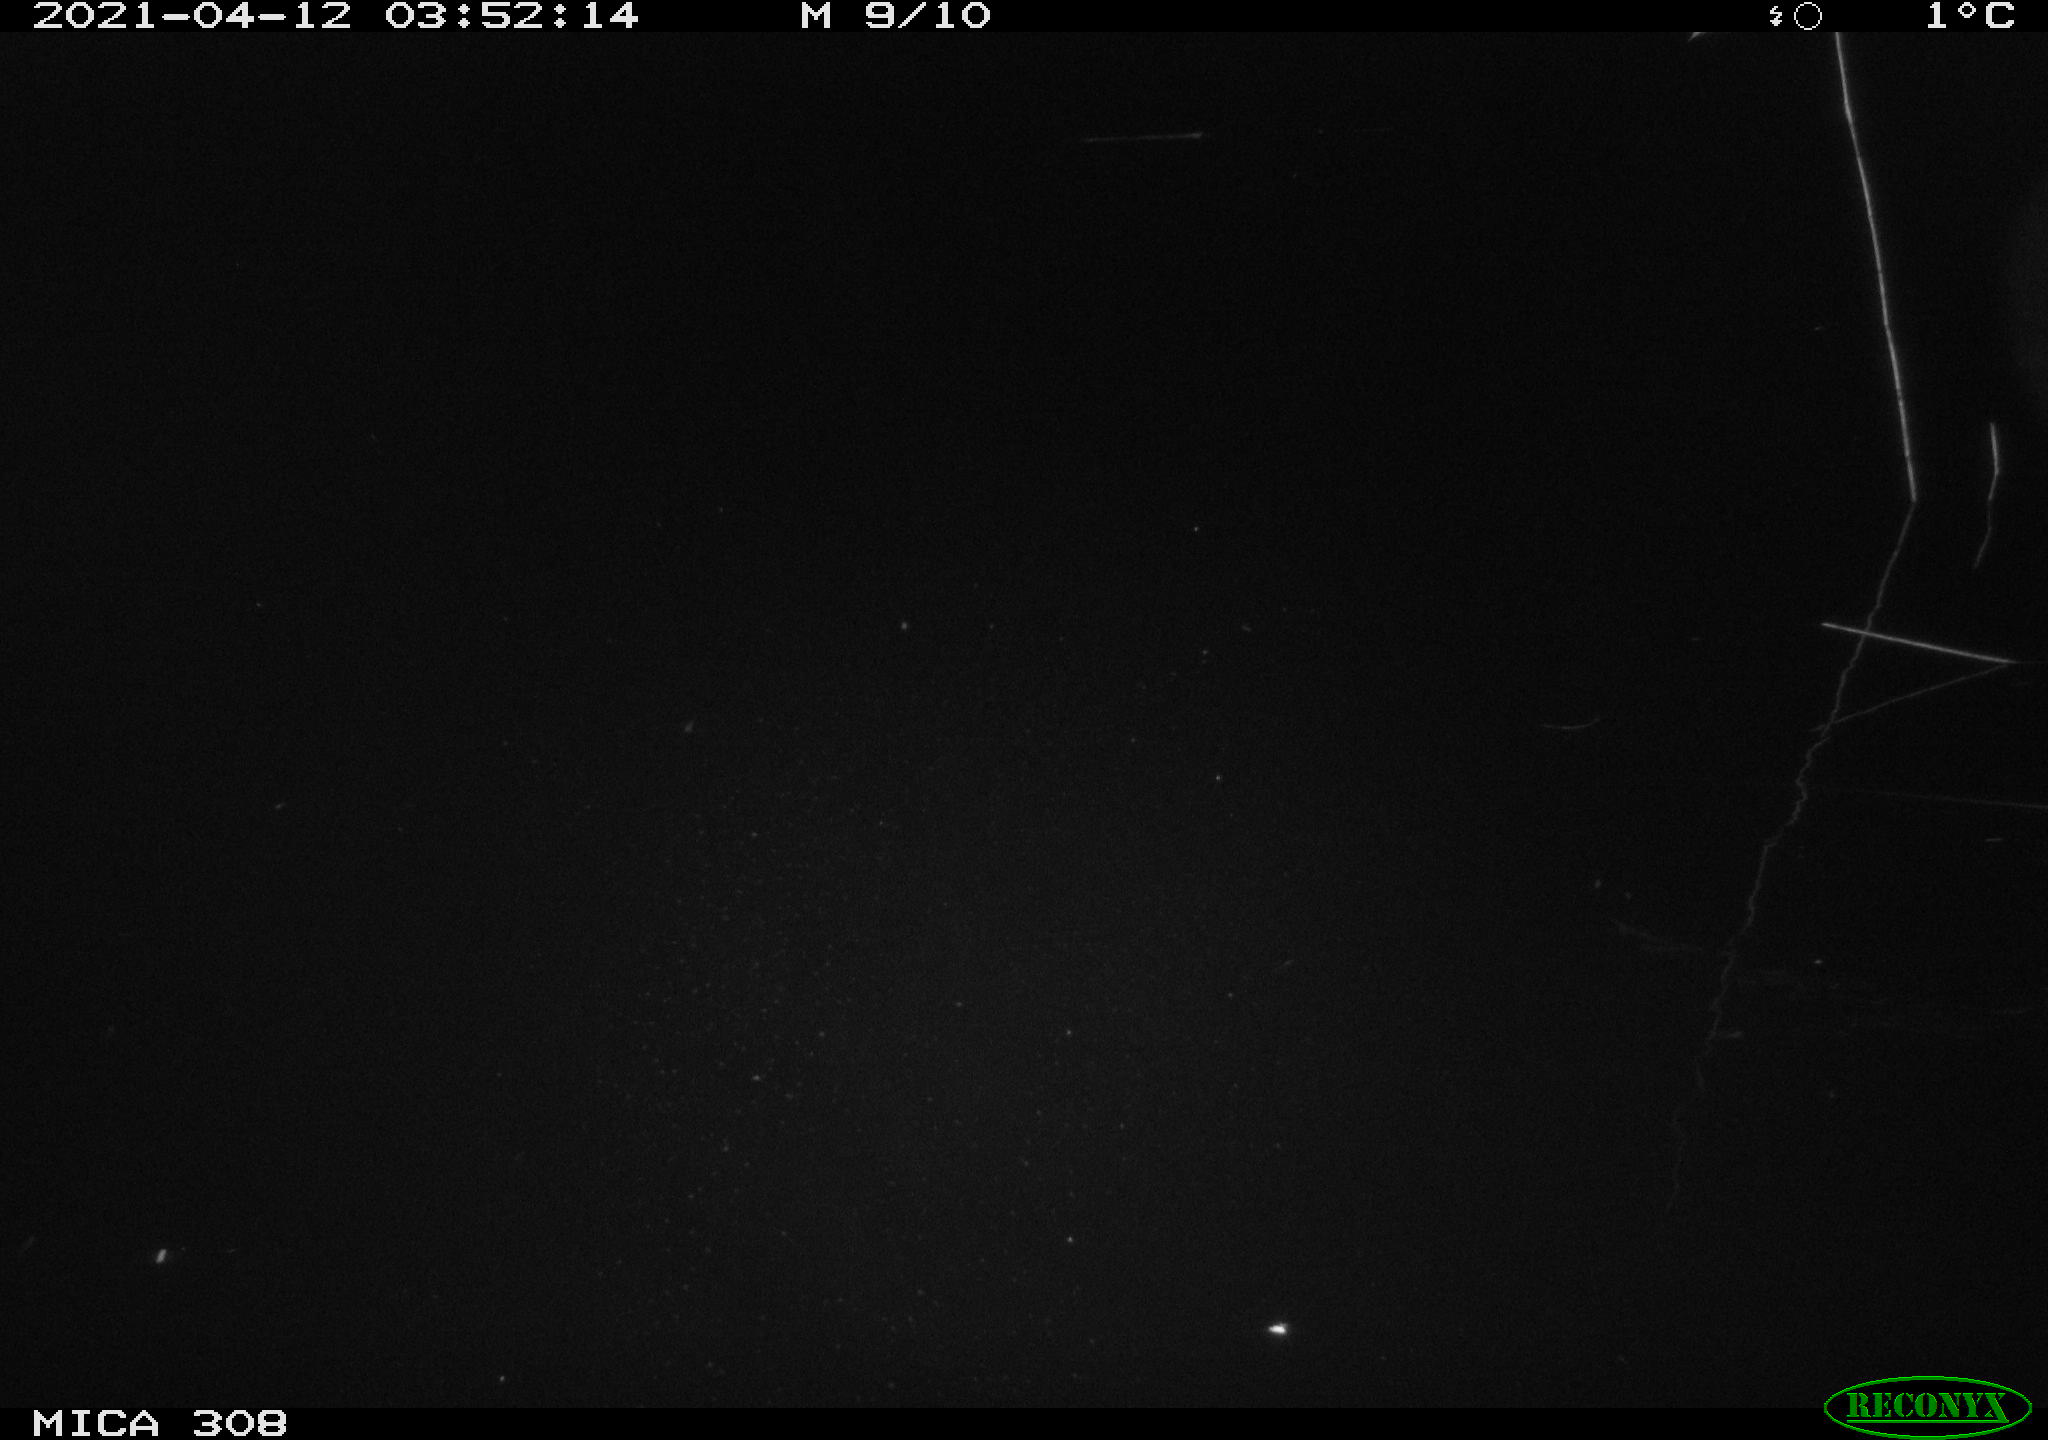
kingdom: Animalia
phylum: Chordata
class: Aves
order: Anseriformes
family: Anatidae
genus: Anas
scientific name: Anas platyrhynchos
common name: Mallard
